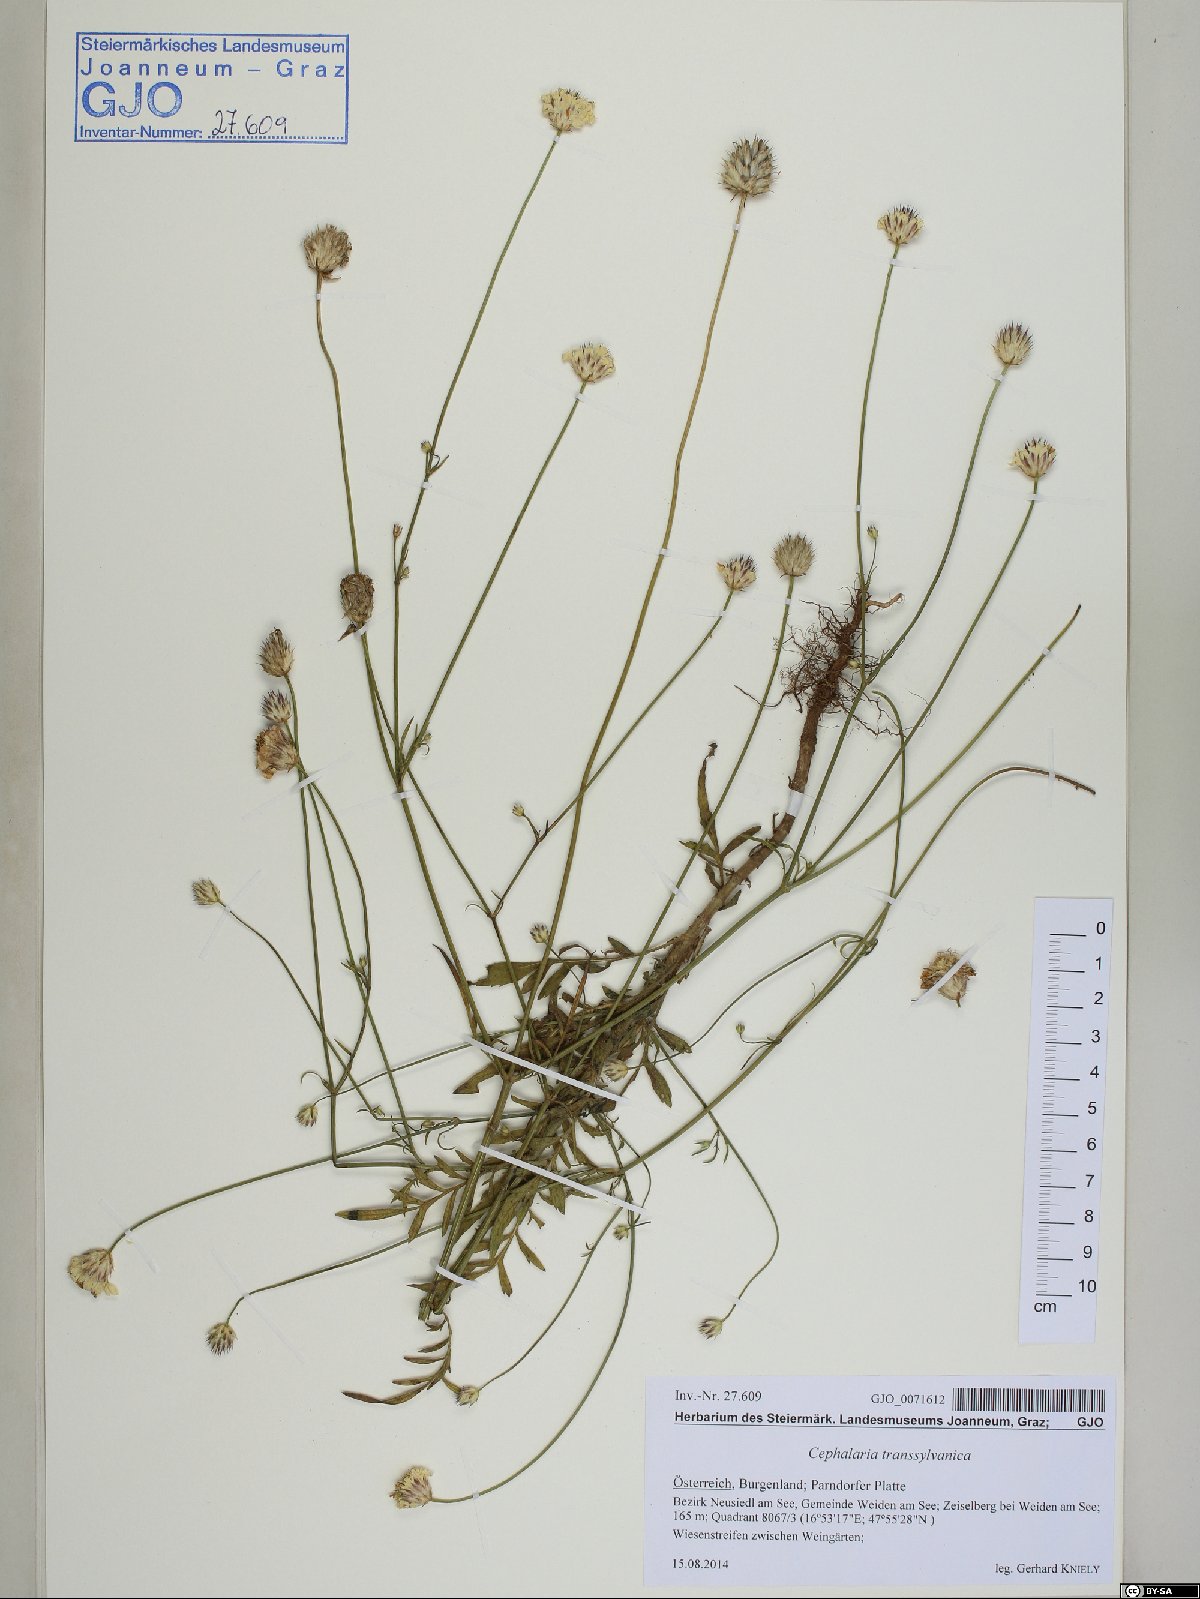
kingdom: Plantae
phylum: Tracheophyta
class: Magnoliopsida
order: Dipsacales
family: Caprifoliaceae
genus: Cephalaria
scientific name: Cephalaria transsylvanica
